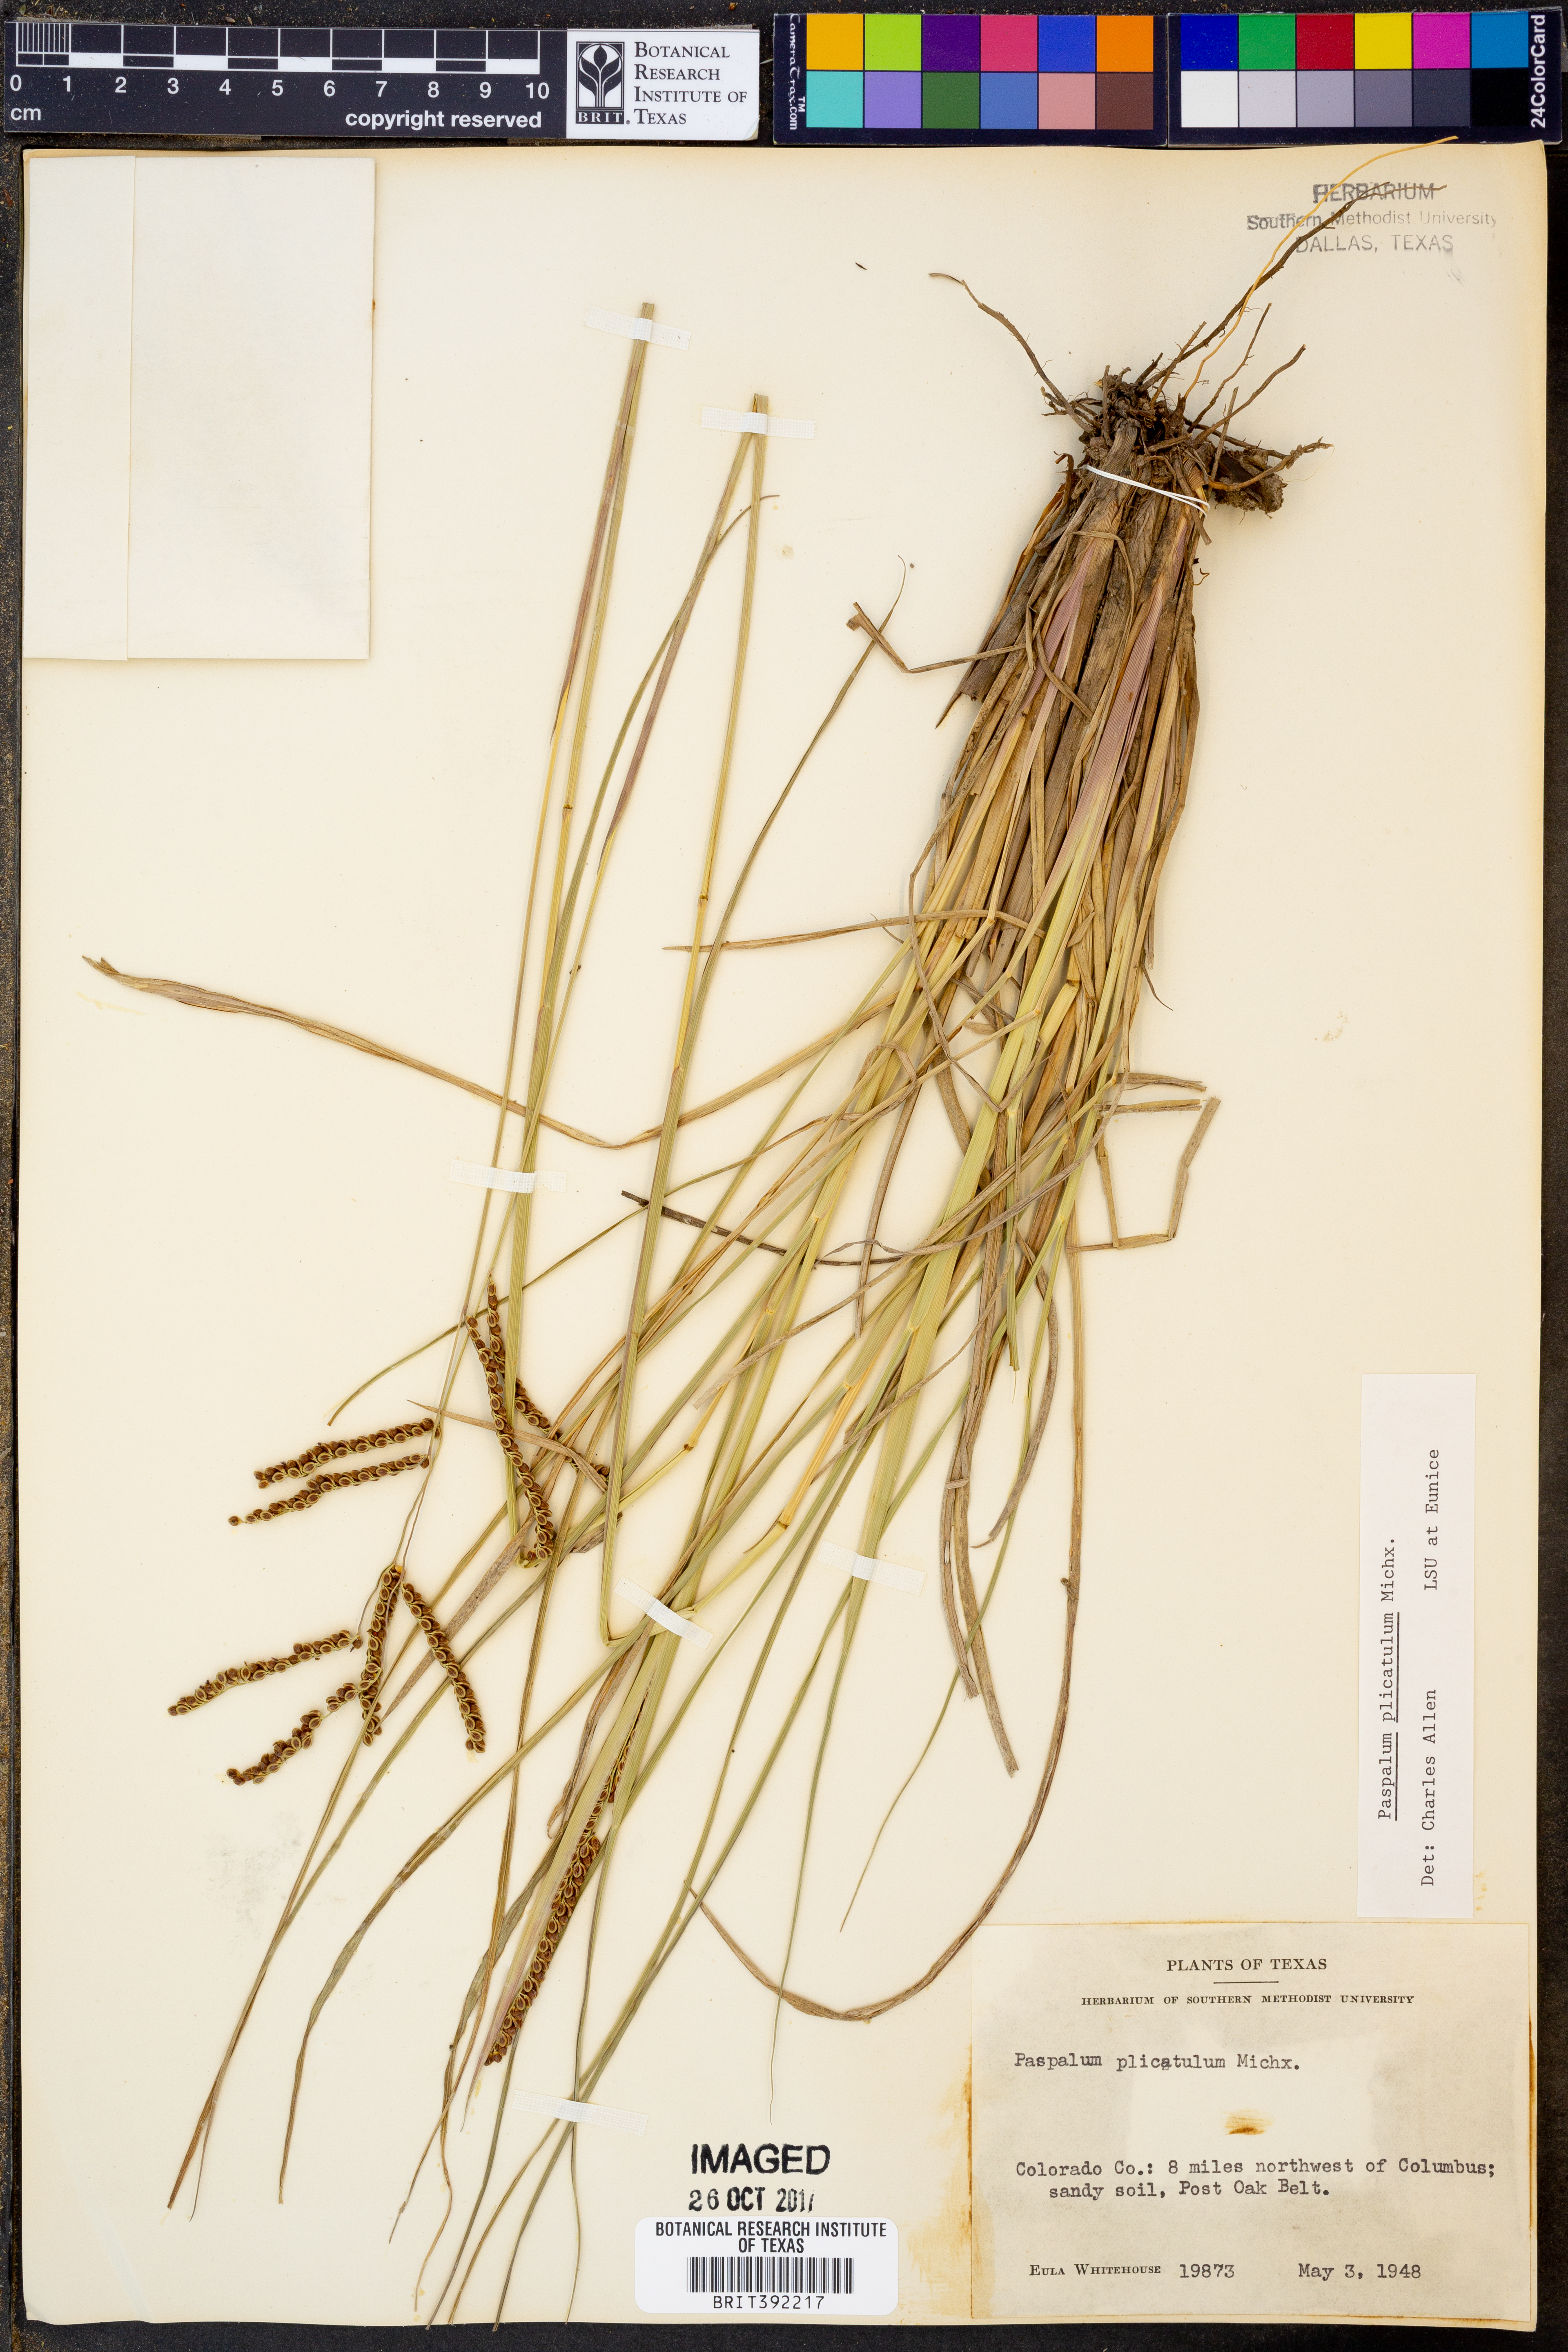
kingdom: Plantae
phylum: Tracheophyta
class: Liliopsida
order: Poales
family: Poaceae
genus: Paspalum
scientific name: Paspalum plicatulum
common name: Top paspalum
